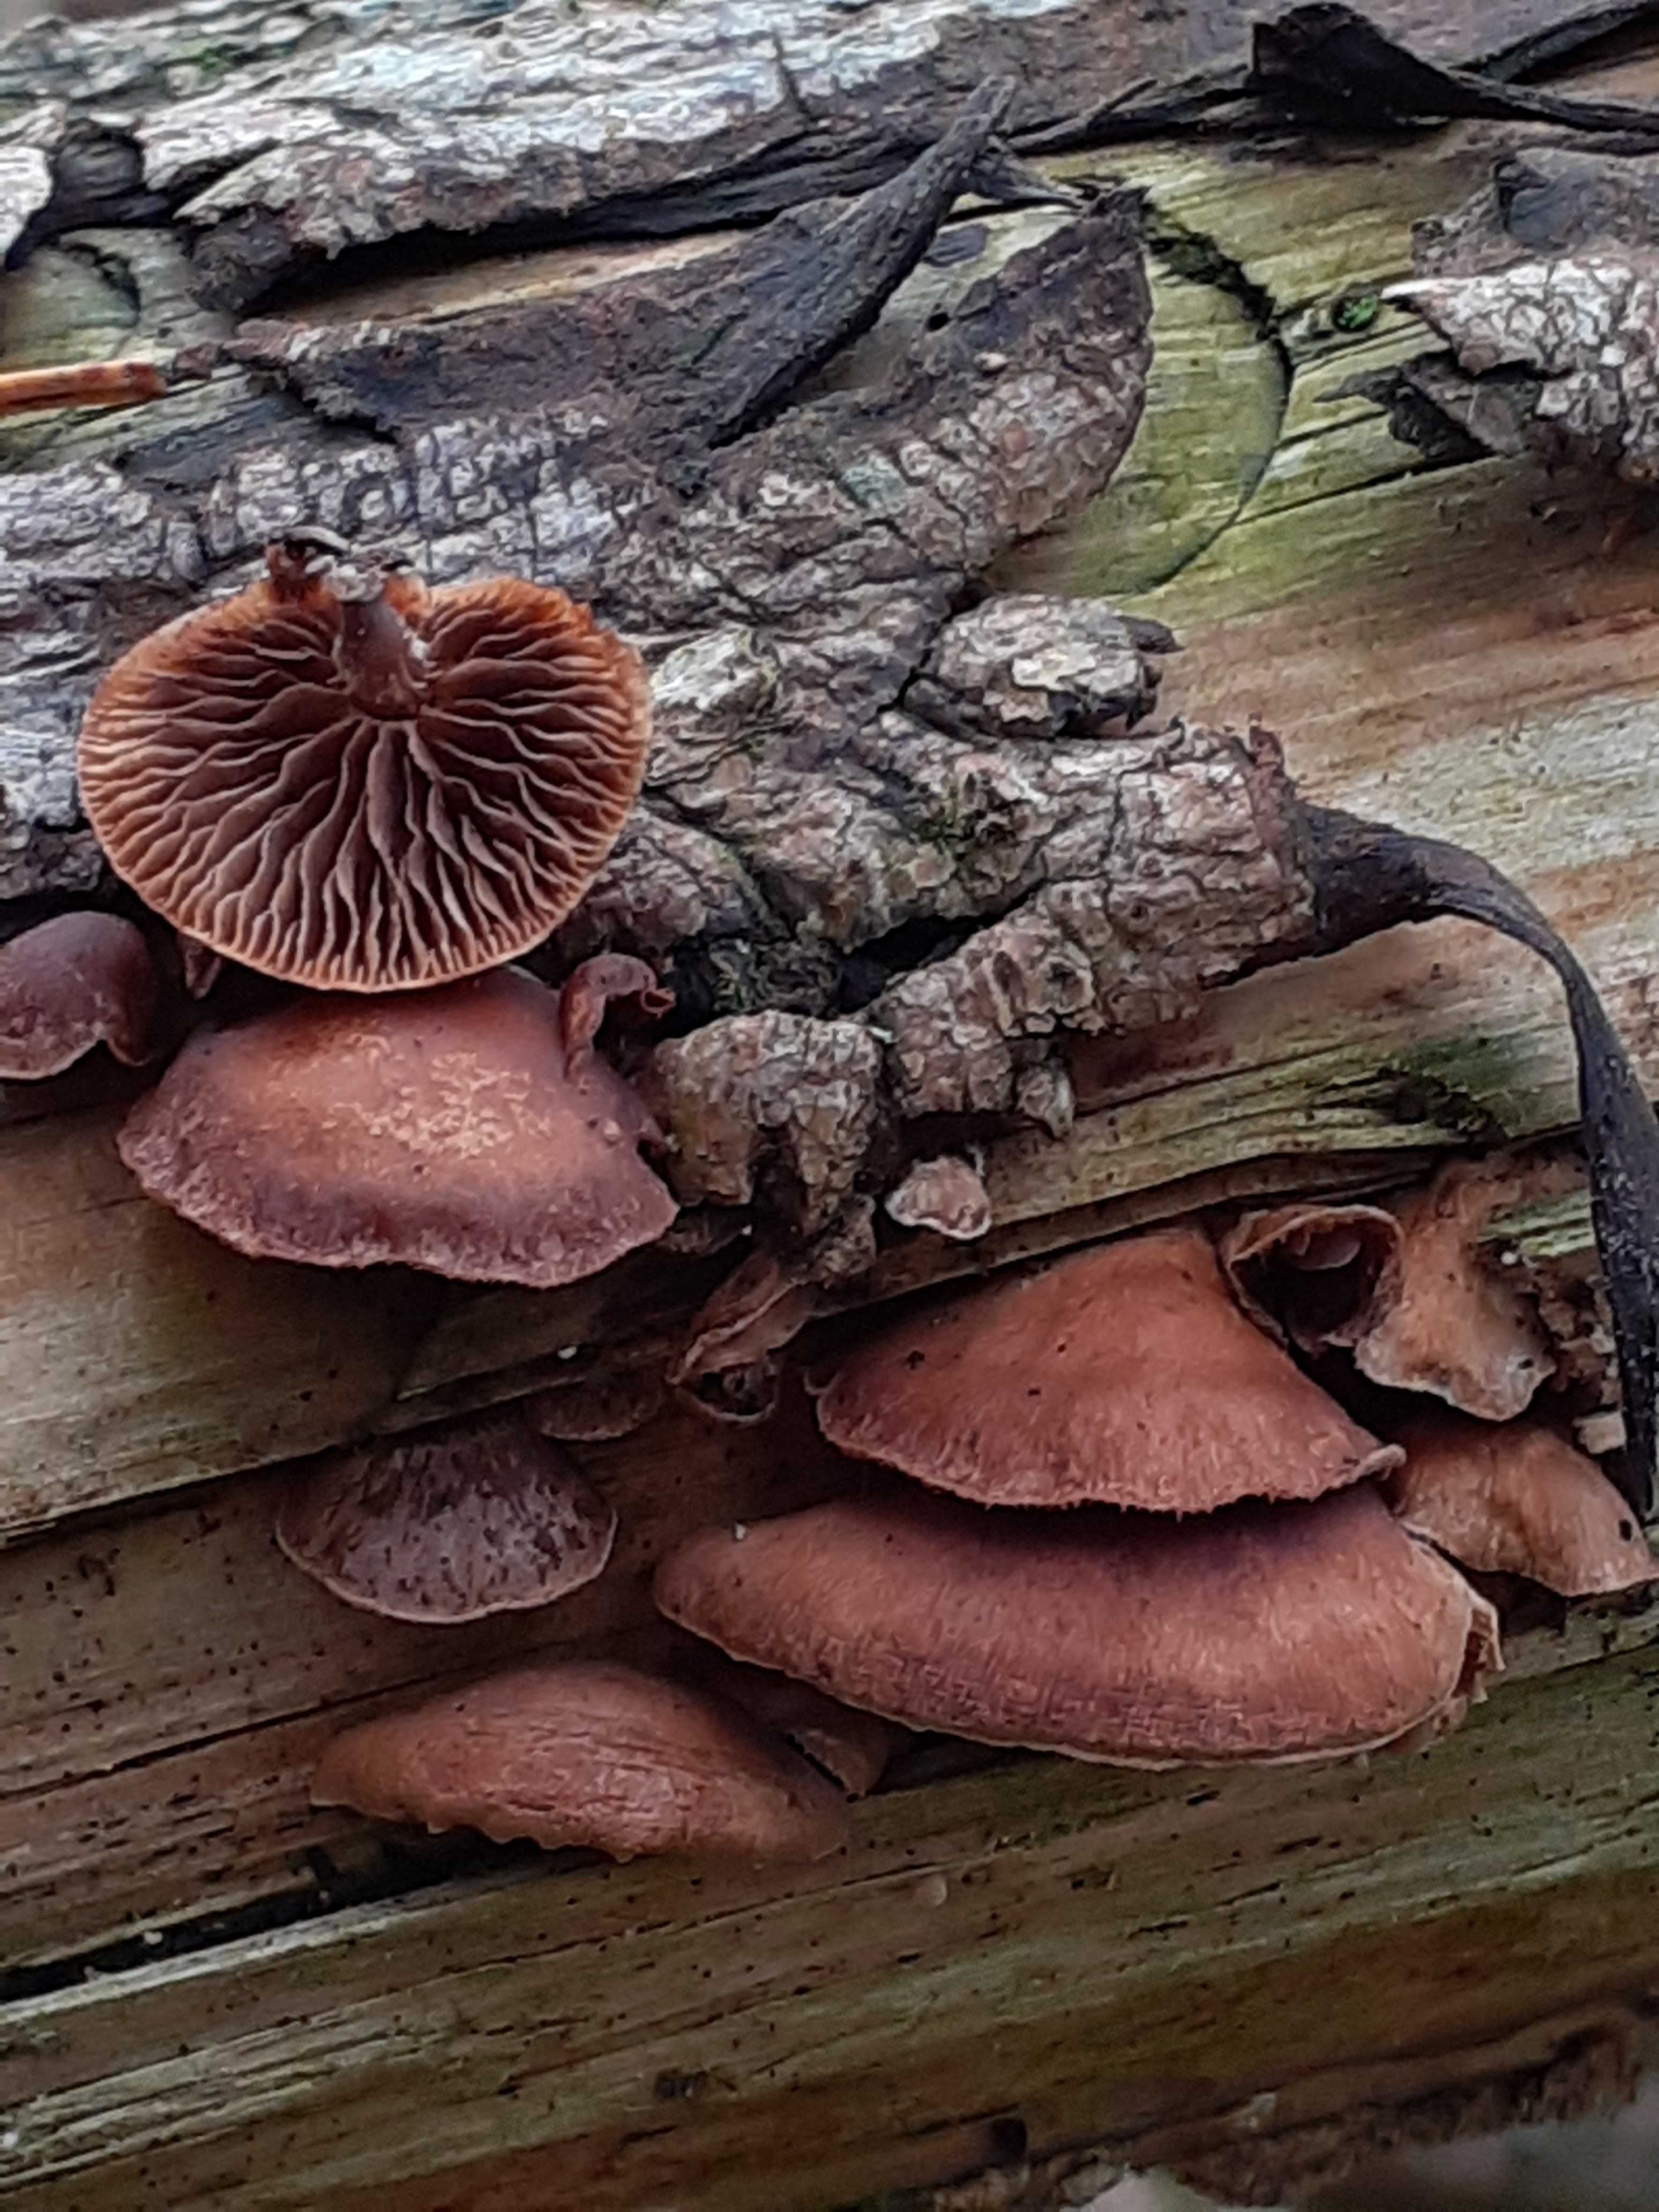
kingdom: Fungi
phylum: Basidiomycota
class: Agaricomycetes
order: Agaricales
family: Strophariaceae
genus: Deconica
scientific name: Deconica horizontalis
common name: ved-stråhat
